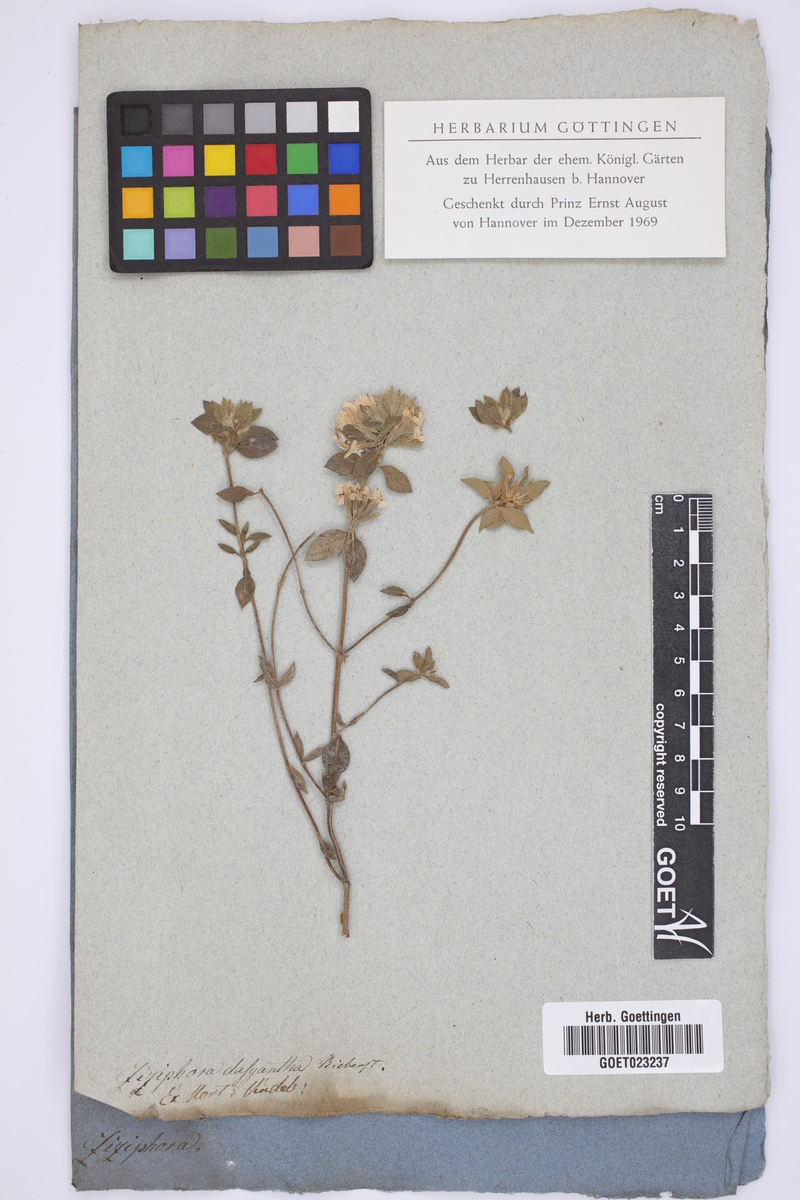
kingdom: Plantae
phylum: Tracheophyta
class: Magnoliopsida
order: Lamiales
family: Lamiaceae
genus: Ziziphora
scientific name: Ziziphora clinopodioides
